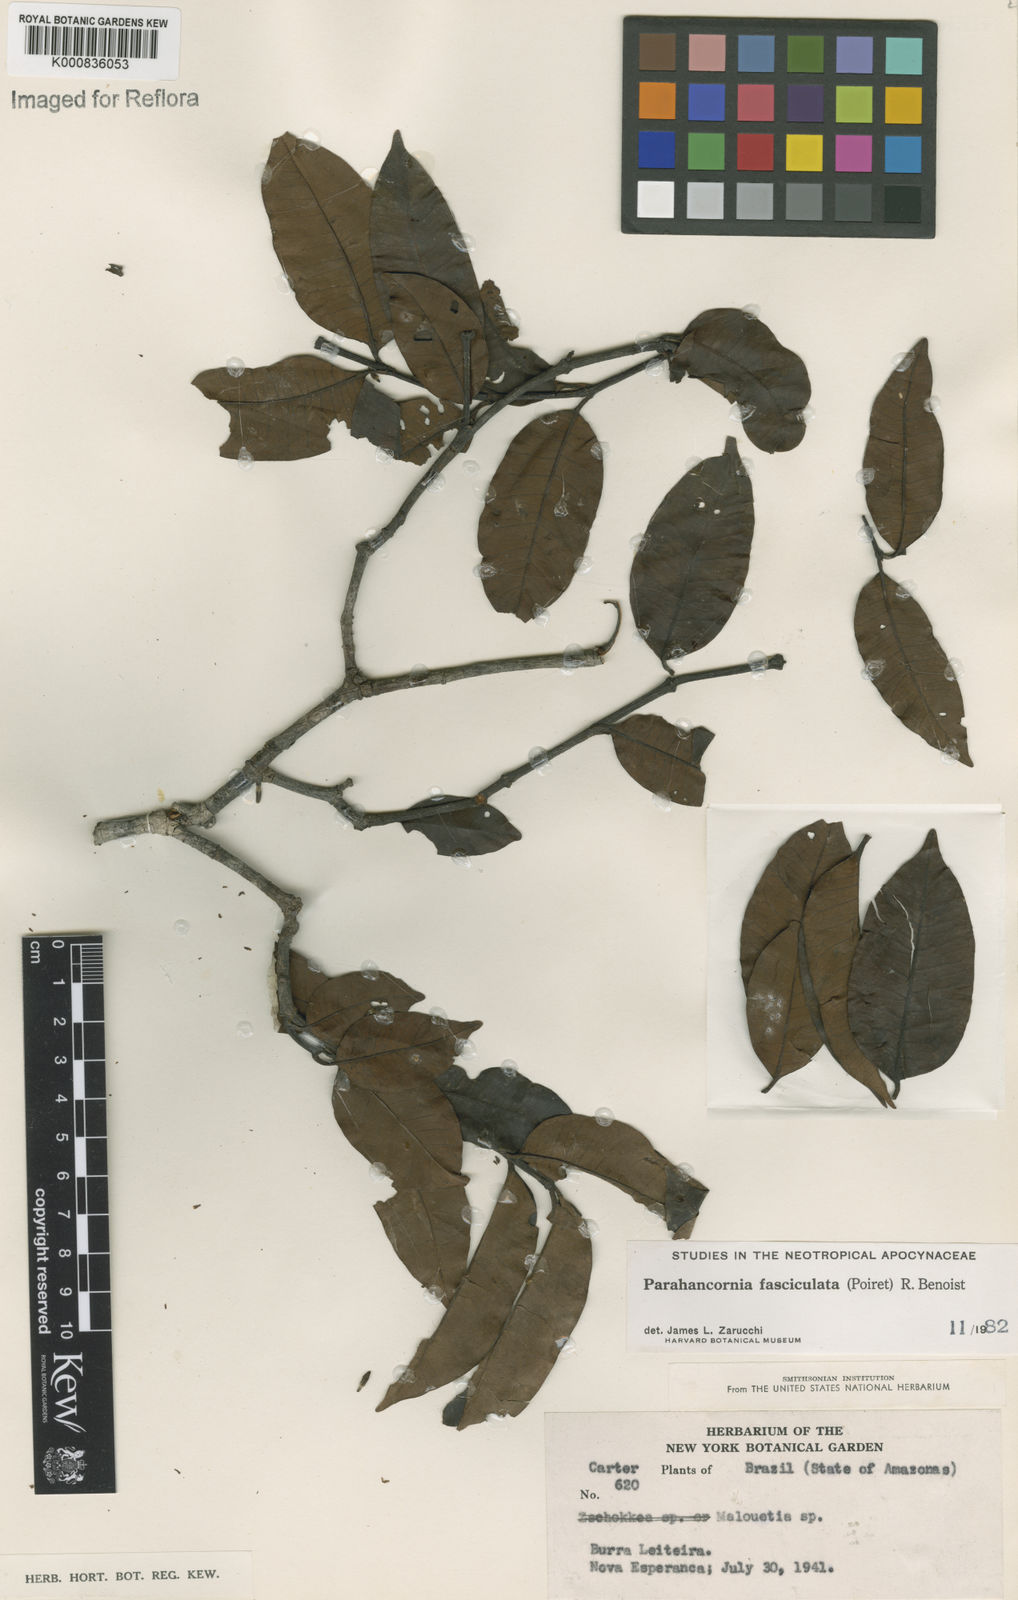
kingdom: Plantae
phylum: Tracheophyta
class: Magnoliopsida
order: Gentianales
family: Apocynaceae
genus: Parahancornia
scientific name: Parahancornia fasciculata
